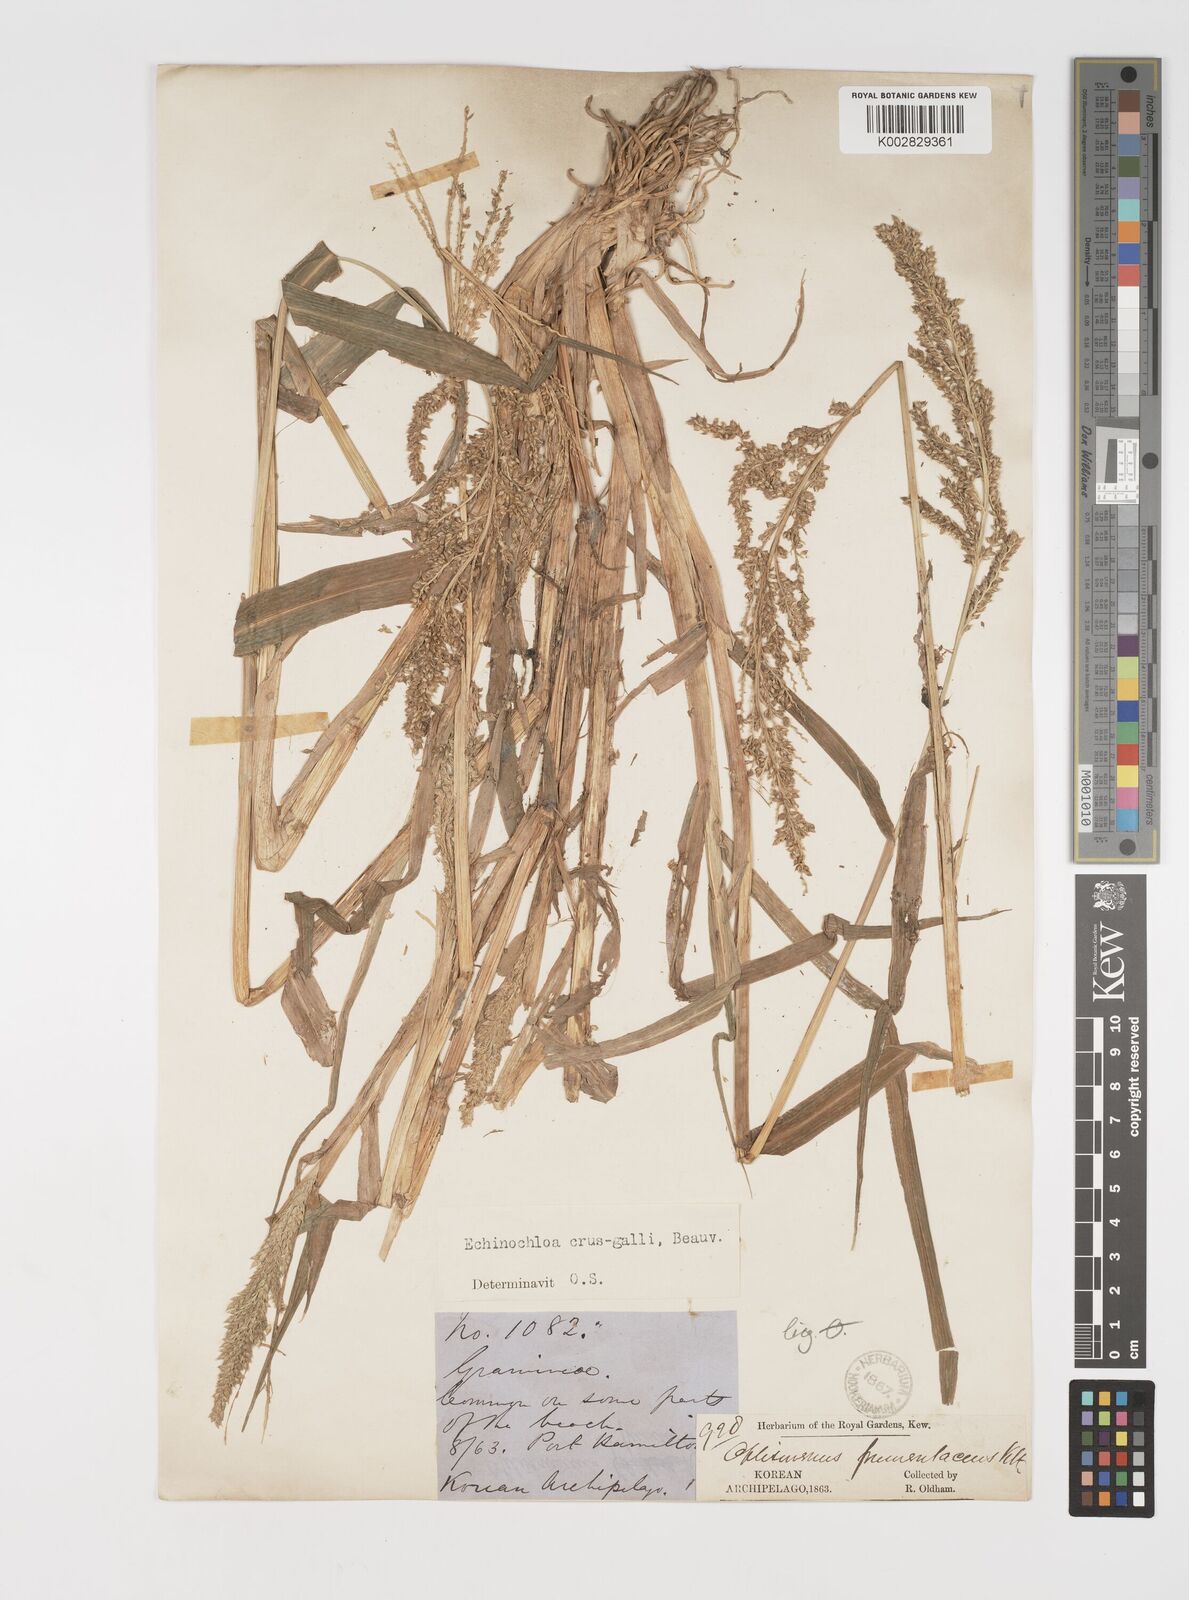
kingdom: Plantae
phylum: Tracheophyta
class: Liliopsida
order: Poales
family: Poaceae
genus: Echinochloa
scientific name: Echinochloa crus-galli
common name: Cockspur
